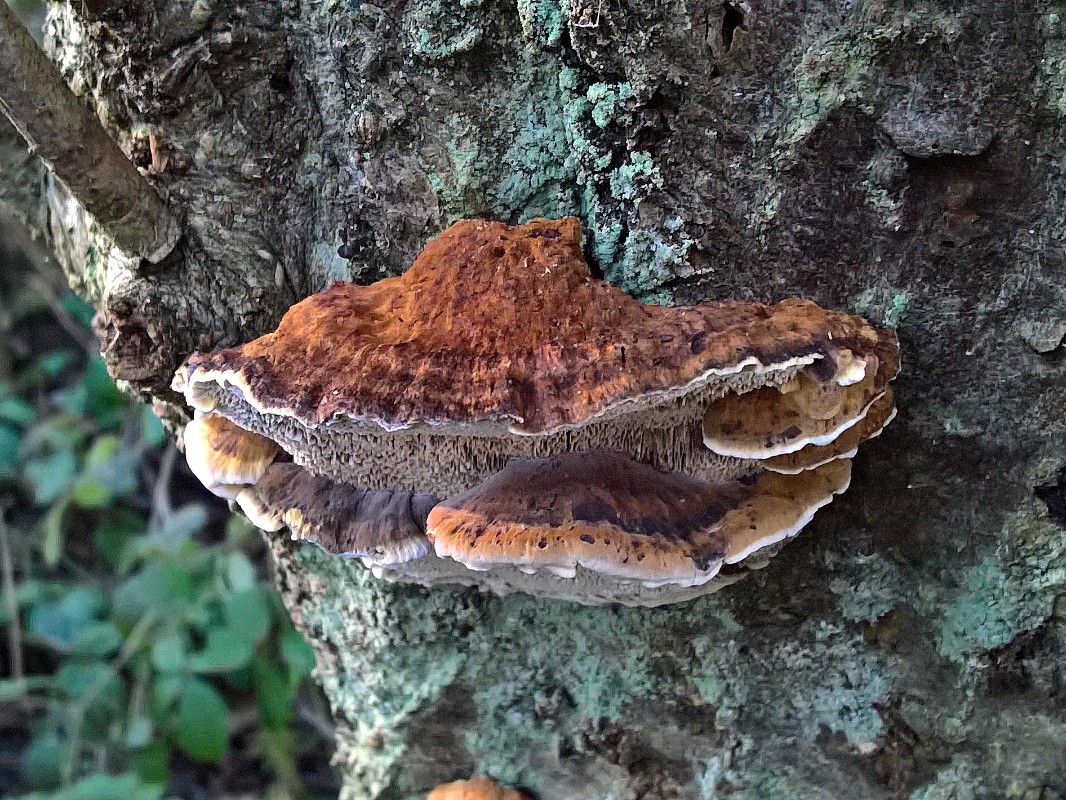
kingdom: Fungi
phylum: Basidiomycota
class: Agaricomycetes
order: Hymenochaetales
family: Hymenochaetaceae
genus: Xanthoporia
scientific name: Xanthoporia radiata
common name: elle-spejlporesvamp
